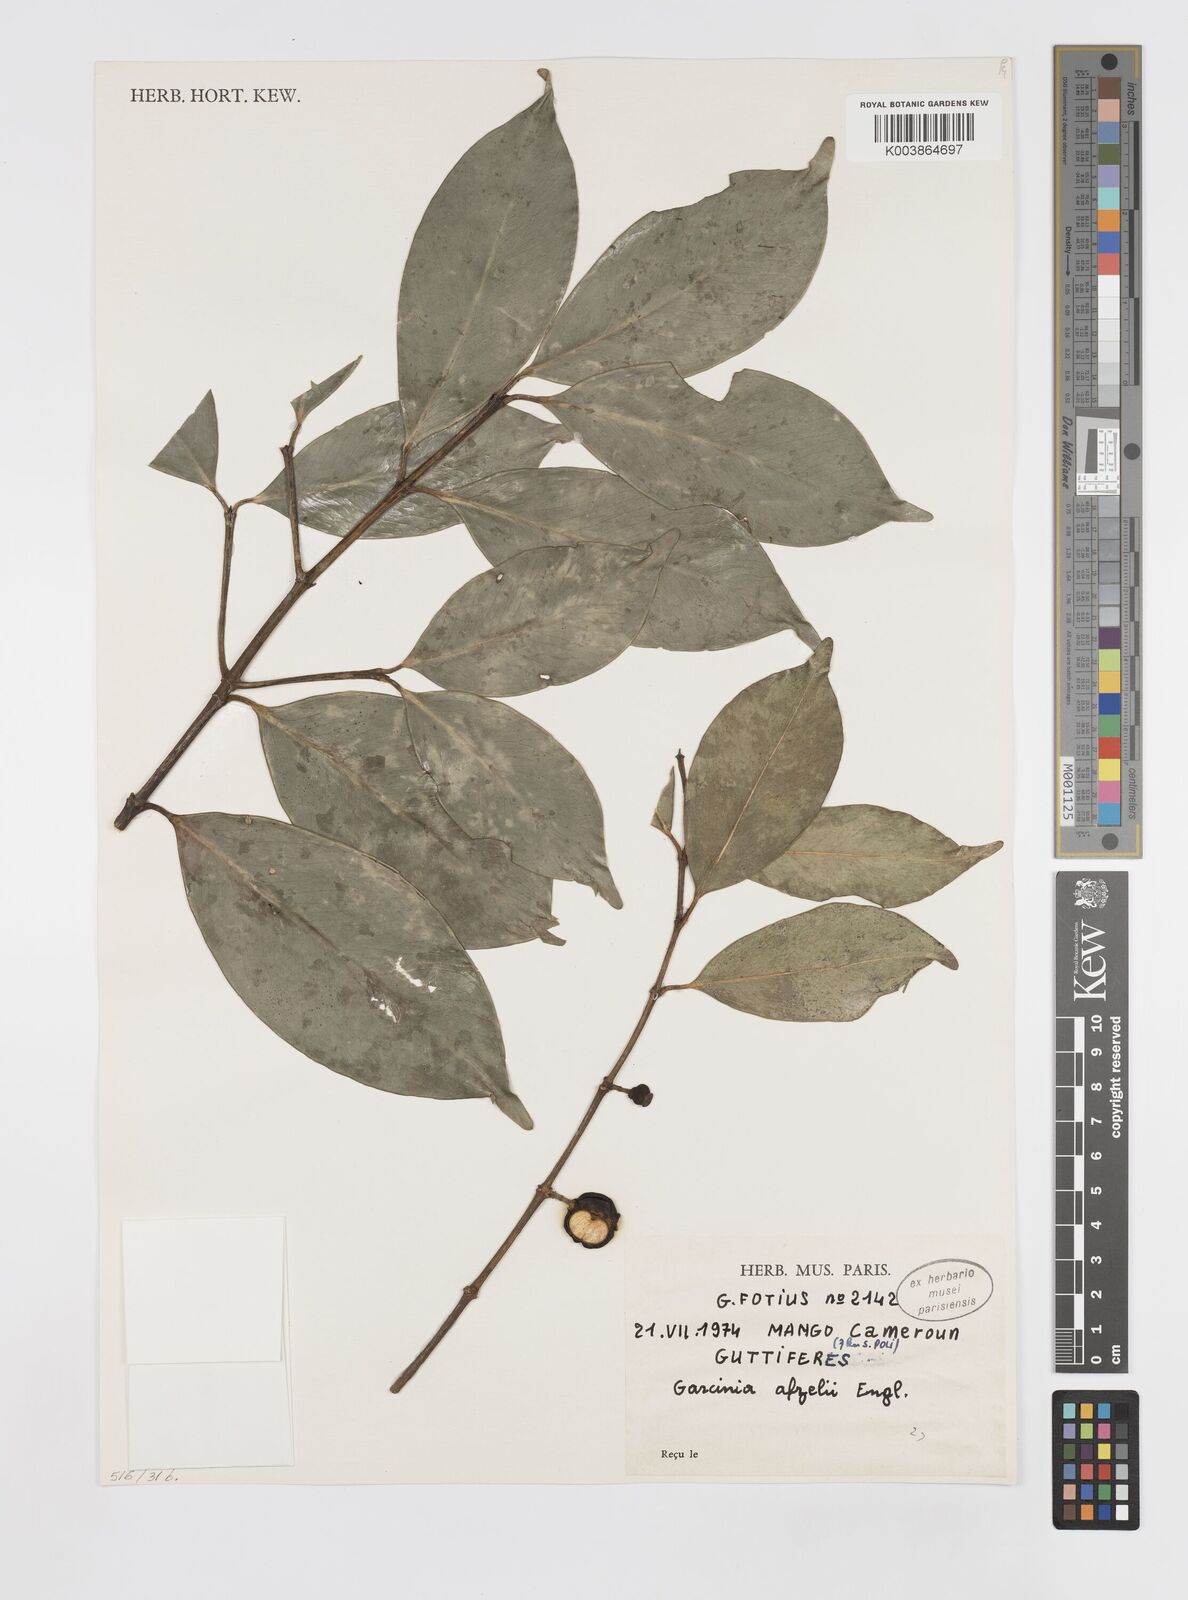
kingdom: Plantae
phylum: Tracheophyta
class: Magnoliopsida
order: Malpighiales
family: Clusiaceae
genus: Garcinia
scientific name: Garcinia afzelii
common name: Bitter-kola
